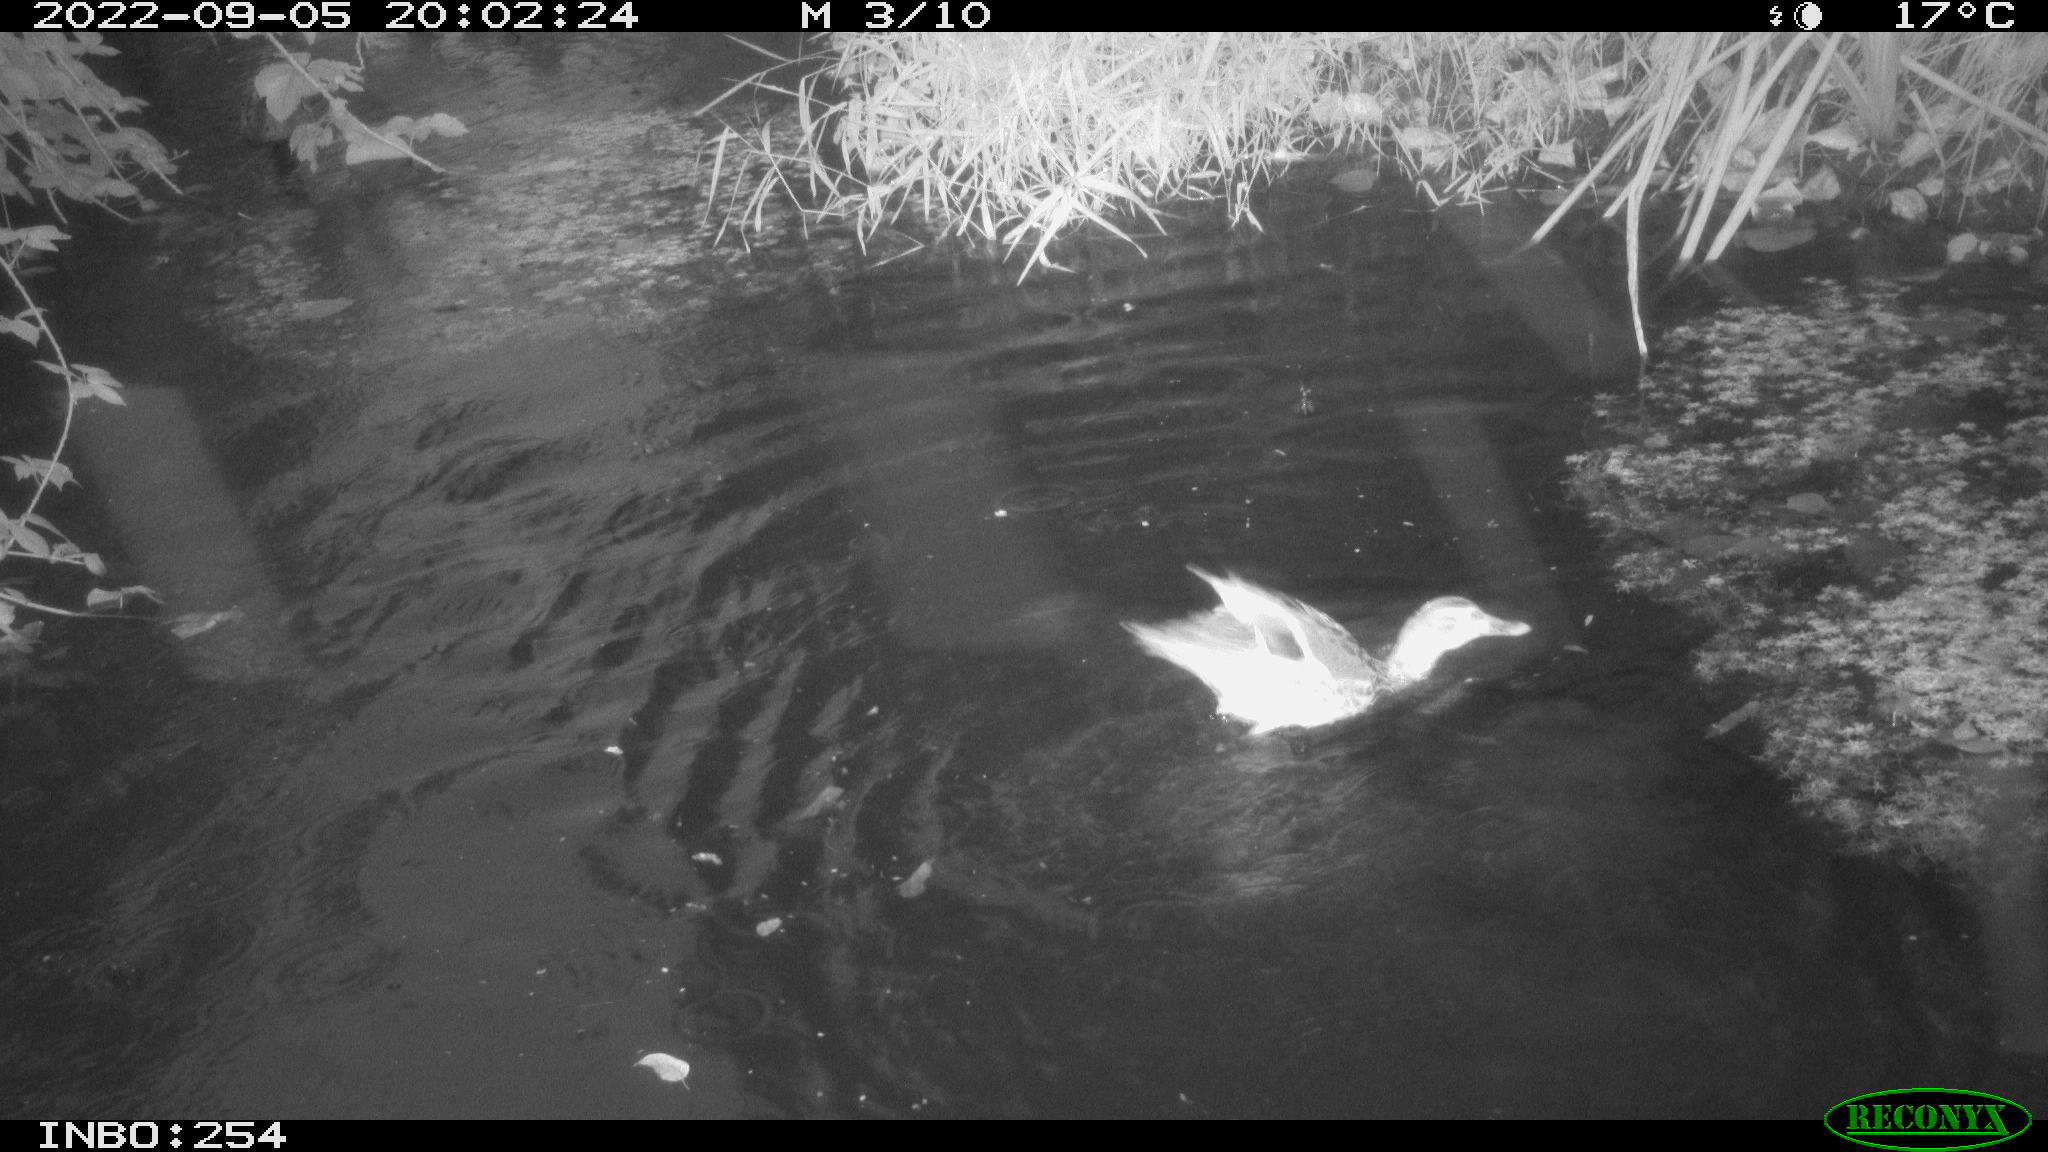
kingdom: Animalia
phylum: Chordata
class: Aves
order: Anseriformes
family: Anatidae
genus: Anas
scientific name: Anas platyrhynchos
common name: Mallard
